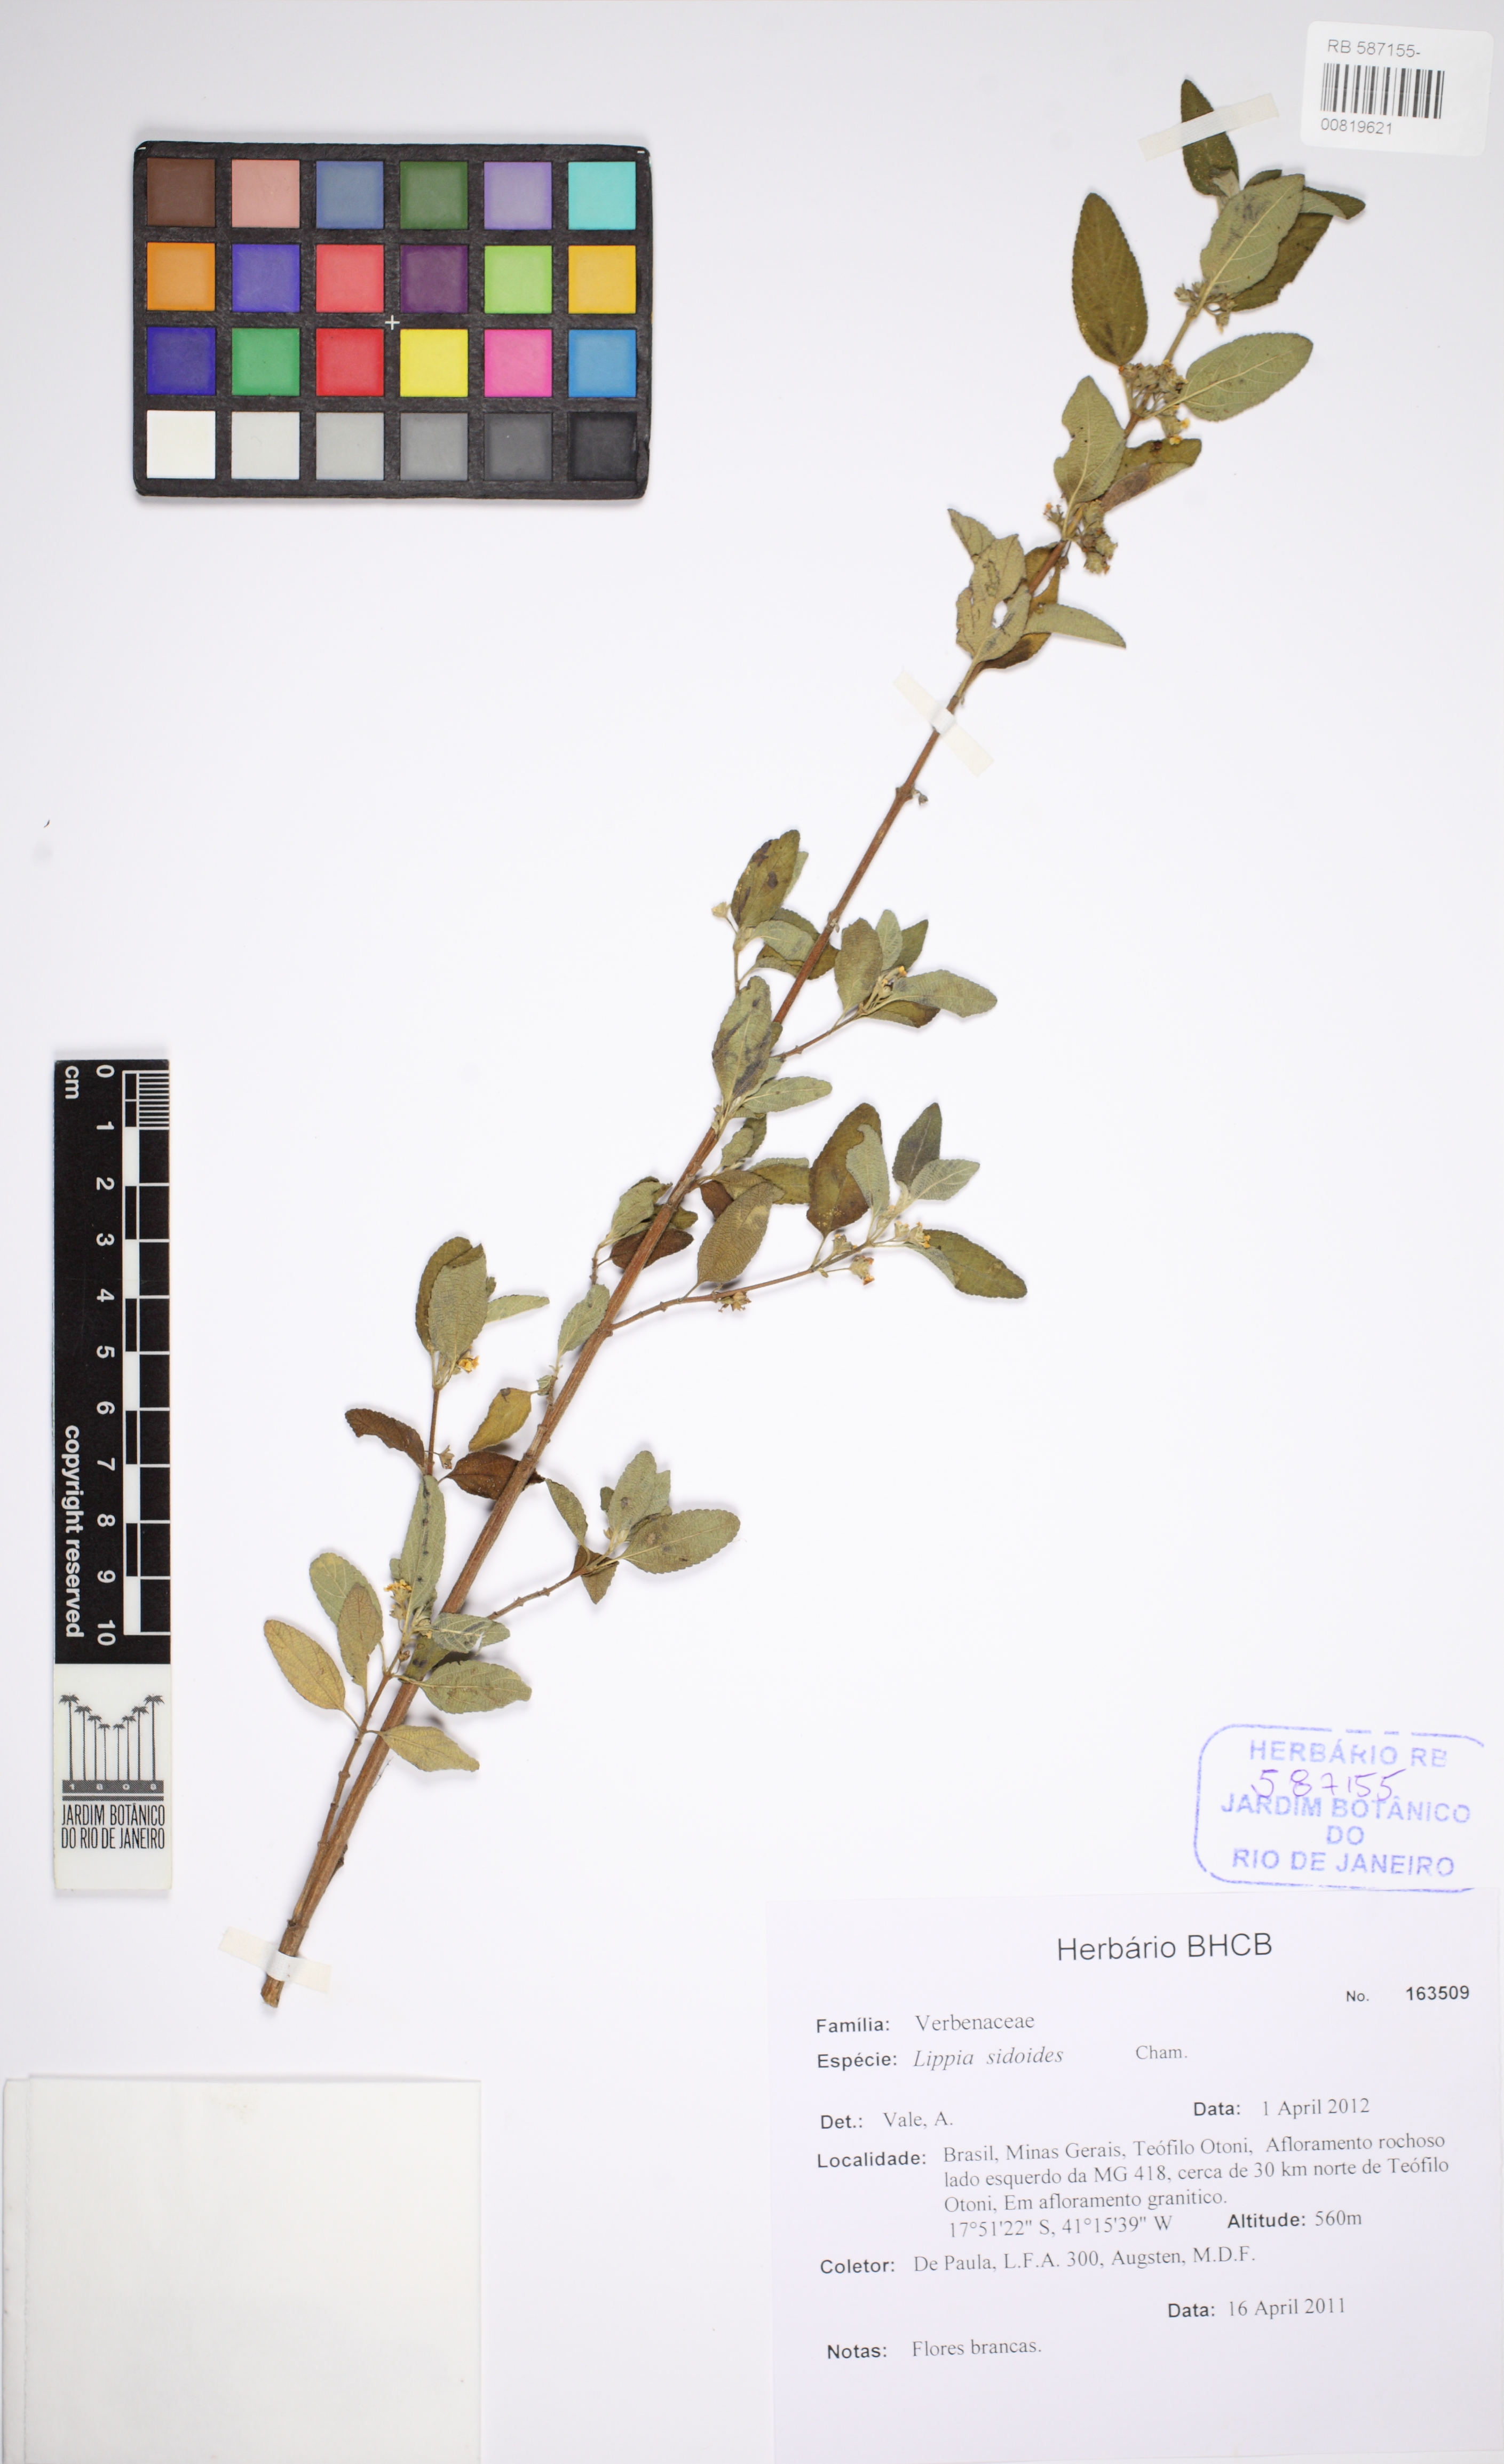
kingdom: Plantae
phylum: Tracheophyta
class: Magnoliopsida
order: Lamiales
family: Verbenaceae
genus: Lippia
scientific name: Lippia origanoides
